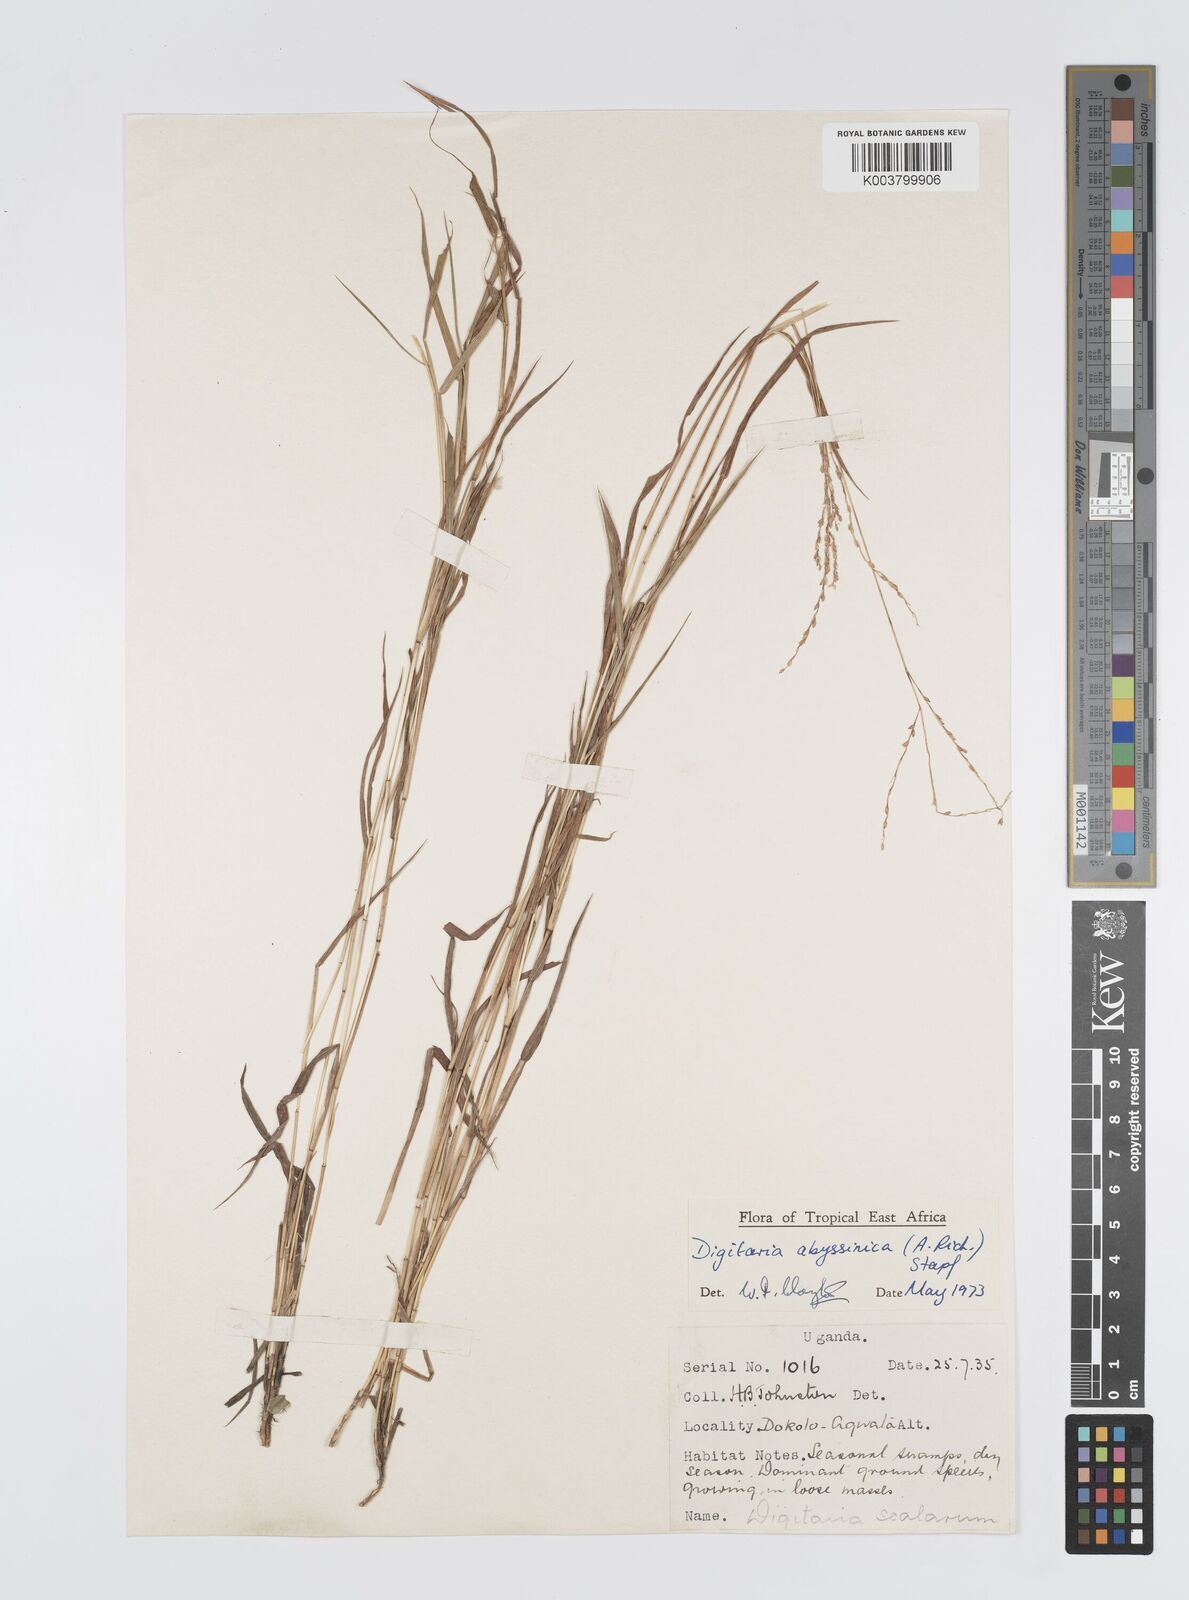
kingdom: Plantae
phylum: Tracheophyta
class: Liliopsida
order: Poales
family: Poaceae
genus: Digitaria
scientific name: Digitaria abyssinica
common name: African couchgrass
